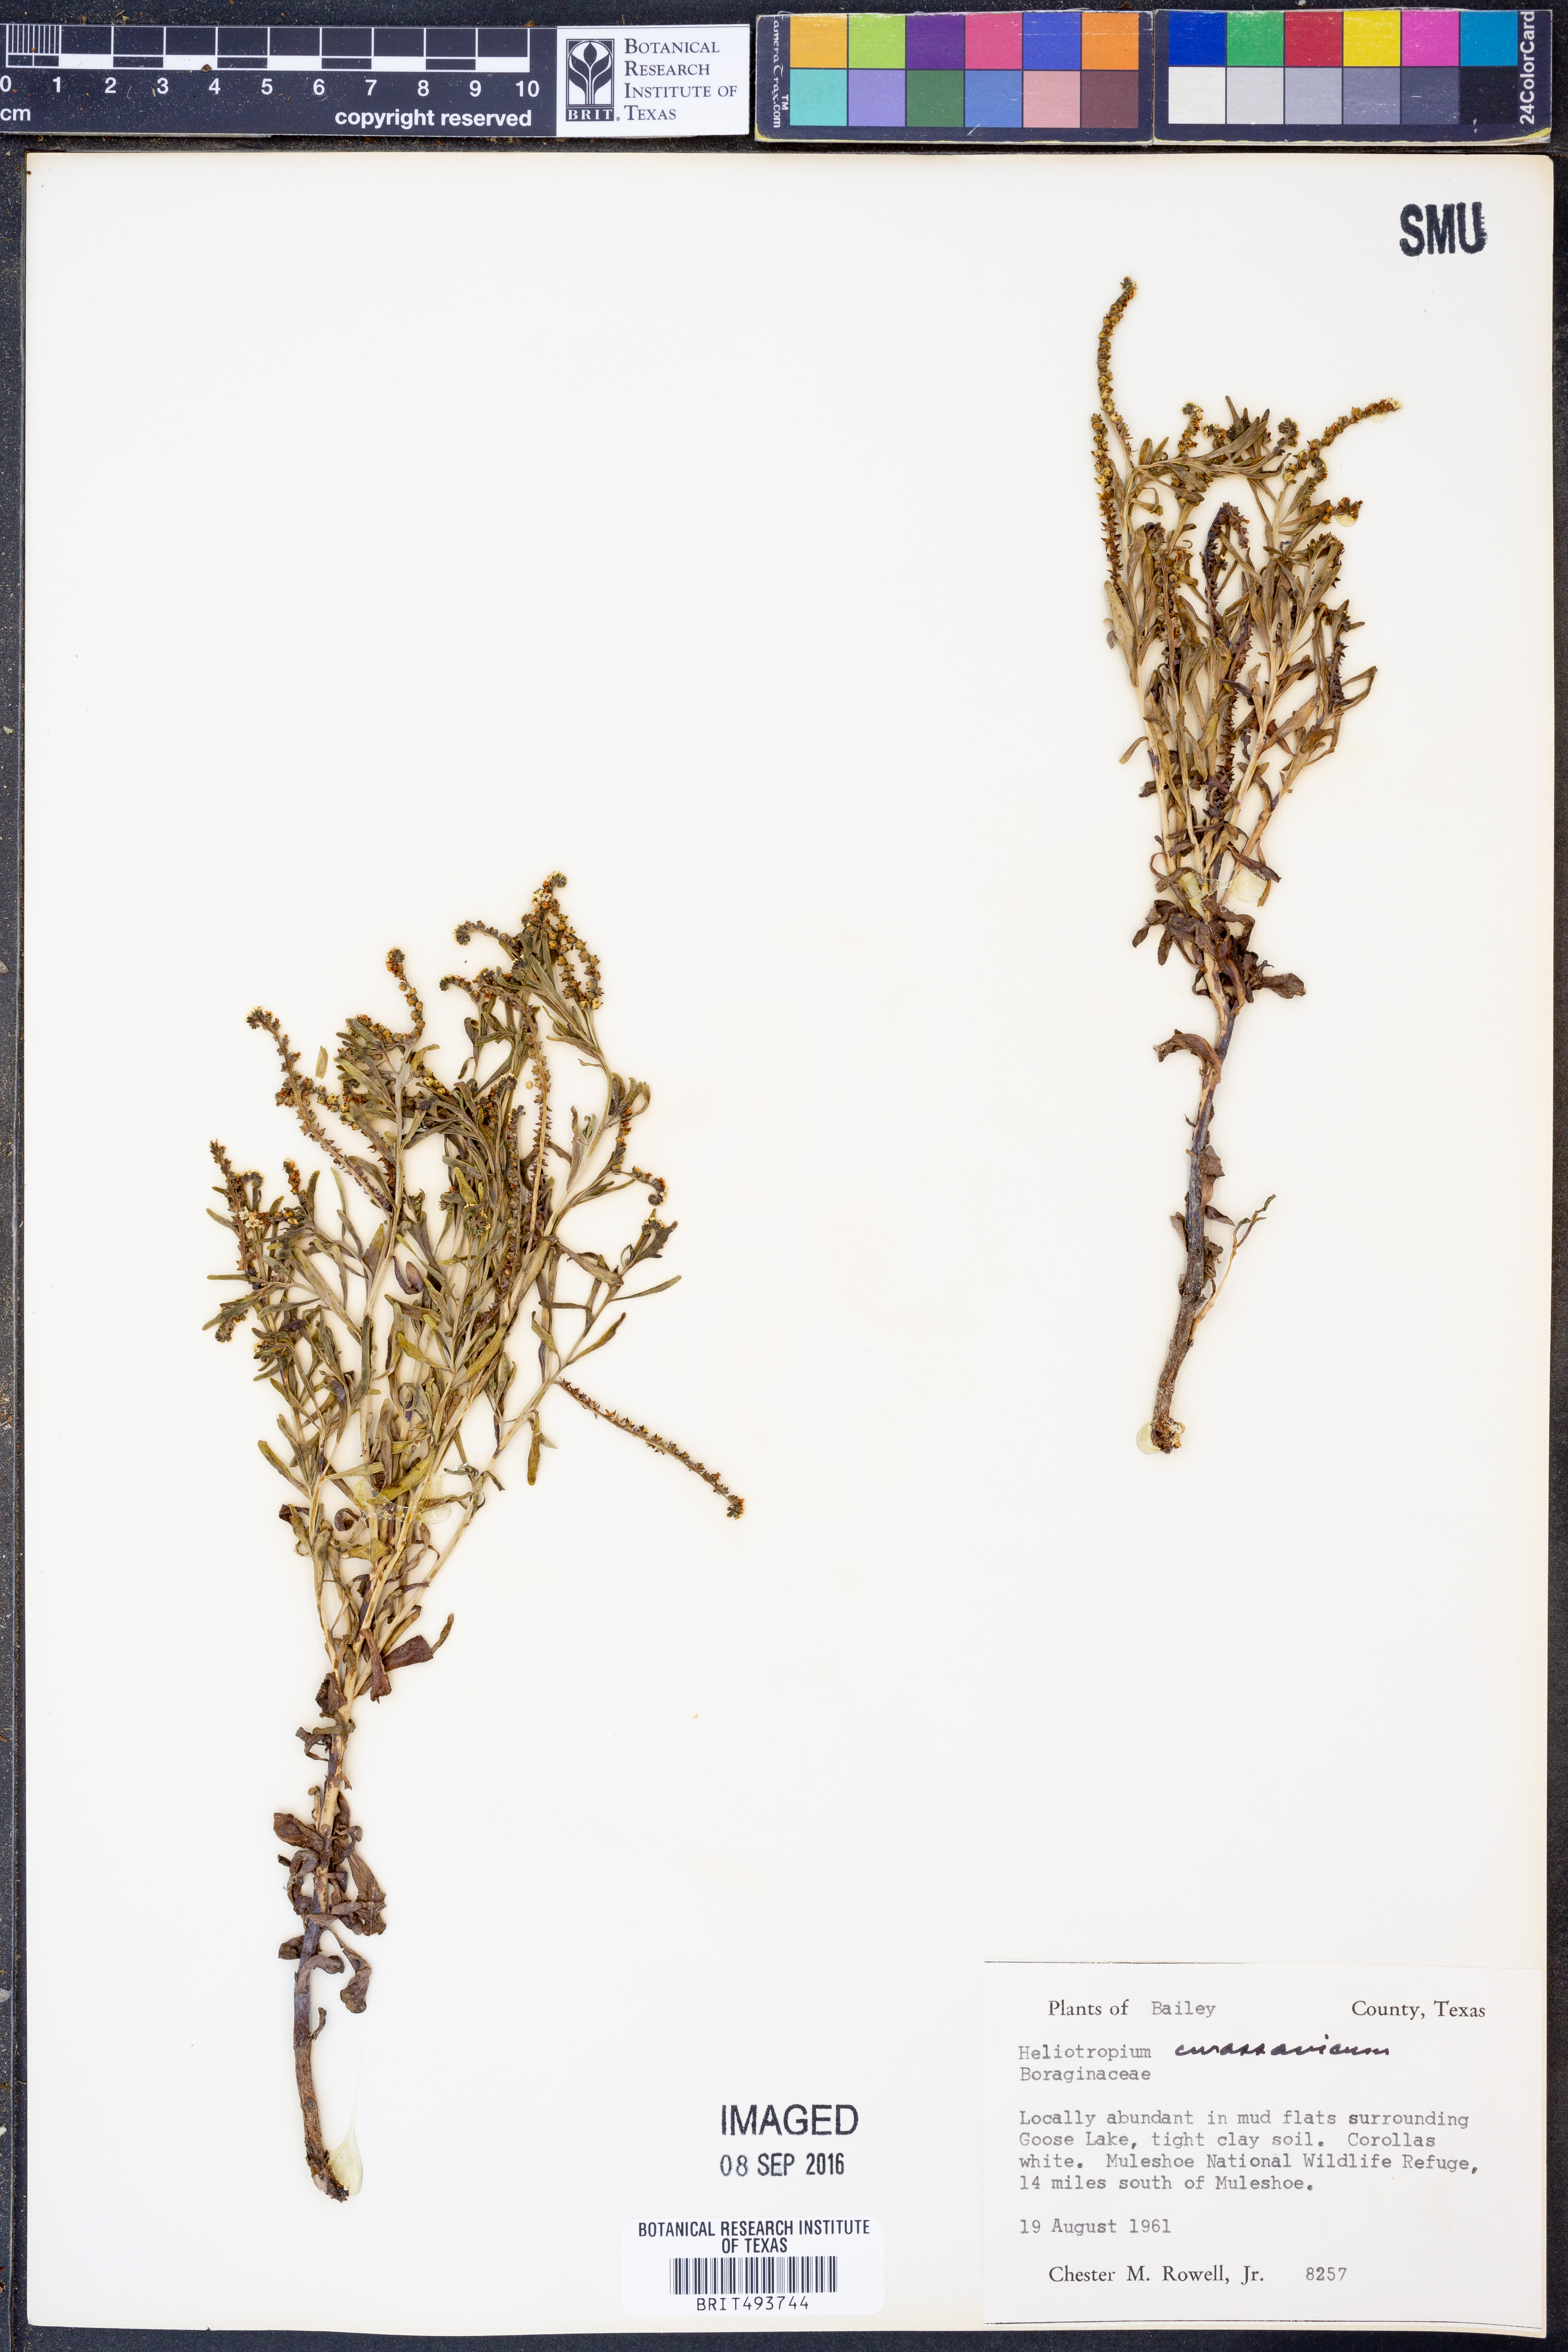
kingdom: Plantae
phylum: Tracheophyta
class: Magnoliopsida
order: Boraginales
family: Heliotropiaceae
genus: Heliotropium
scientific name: Heliotropium curassavicum
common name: Seaside heliotrope
